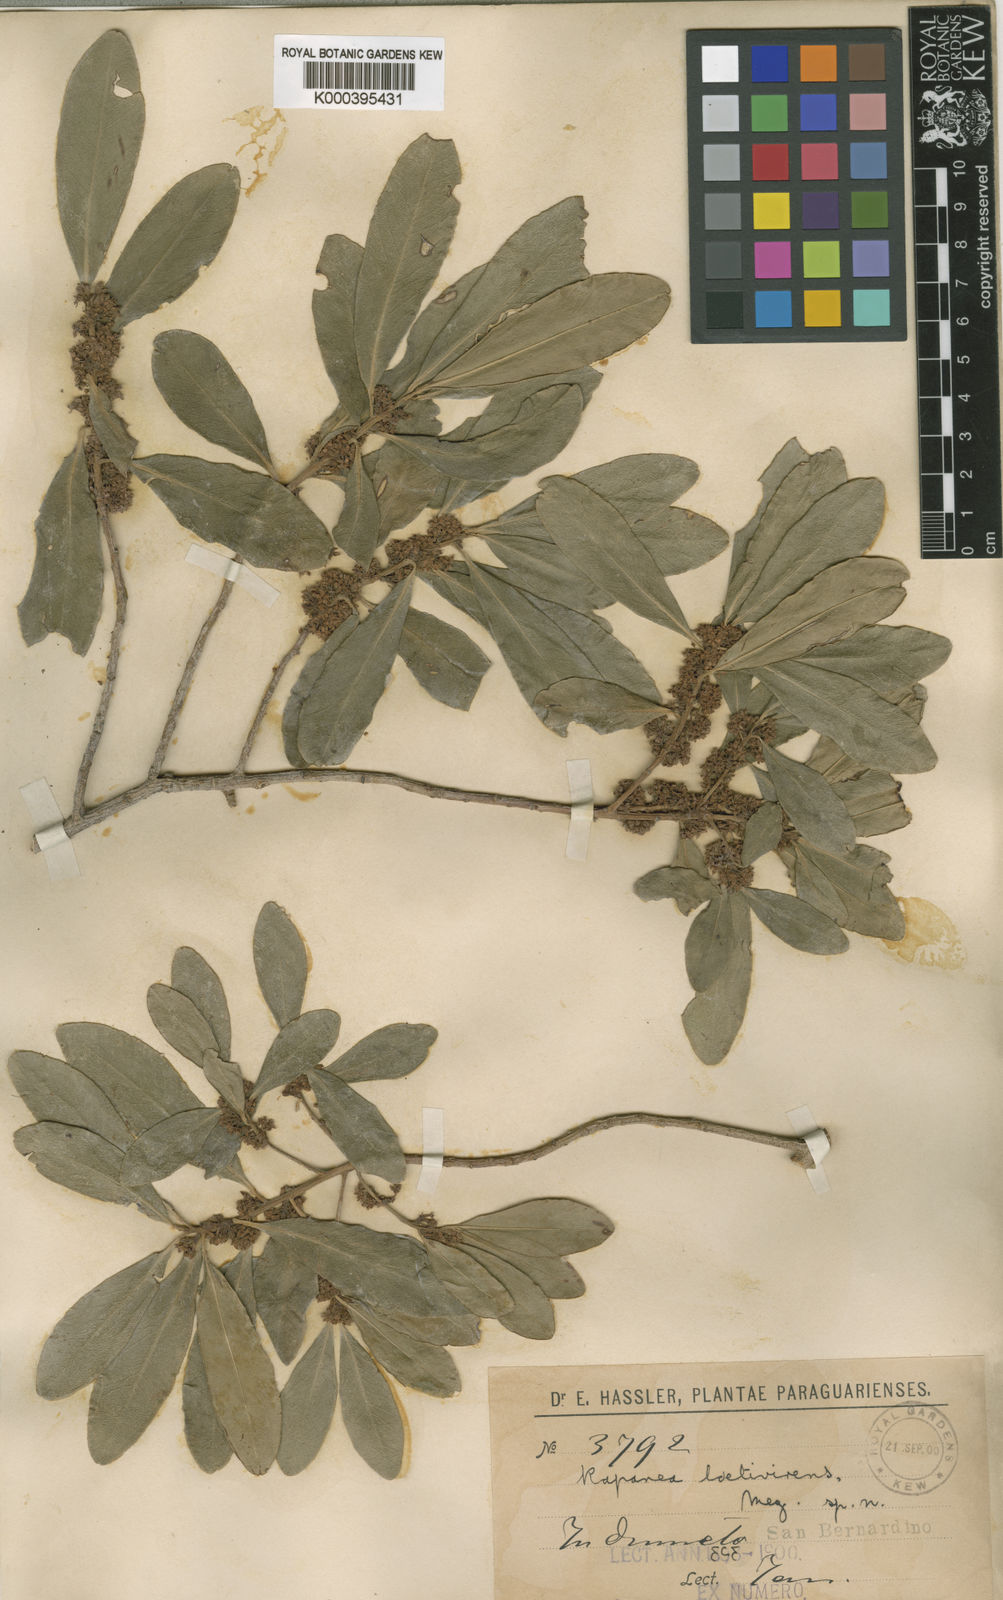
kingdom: Plantae
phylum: Tracheophyta
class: Magnoliopsida
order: Ericales
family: Primulaceae
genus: Myrsine
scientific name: Myrsine laetevirens
